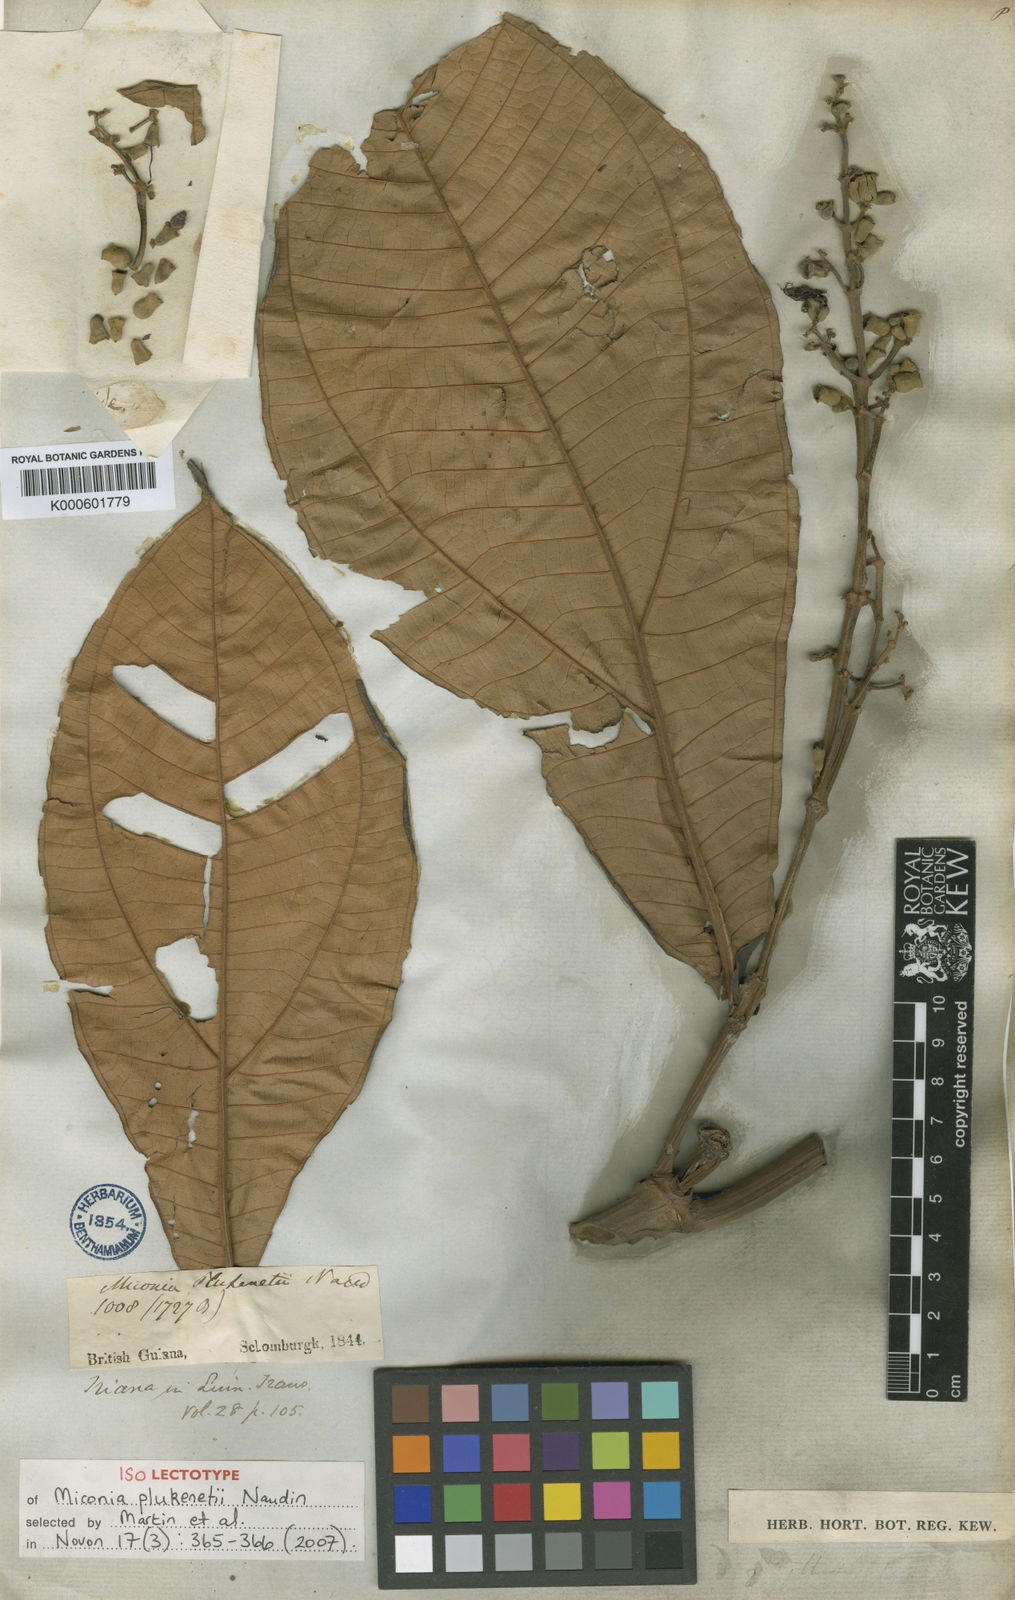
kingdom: Plantae
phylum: Tracheophyta
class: Magnoliopsida
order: Myrtales
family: Melastomataceae
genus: Miconia
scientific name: Miconia plukenetii
